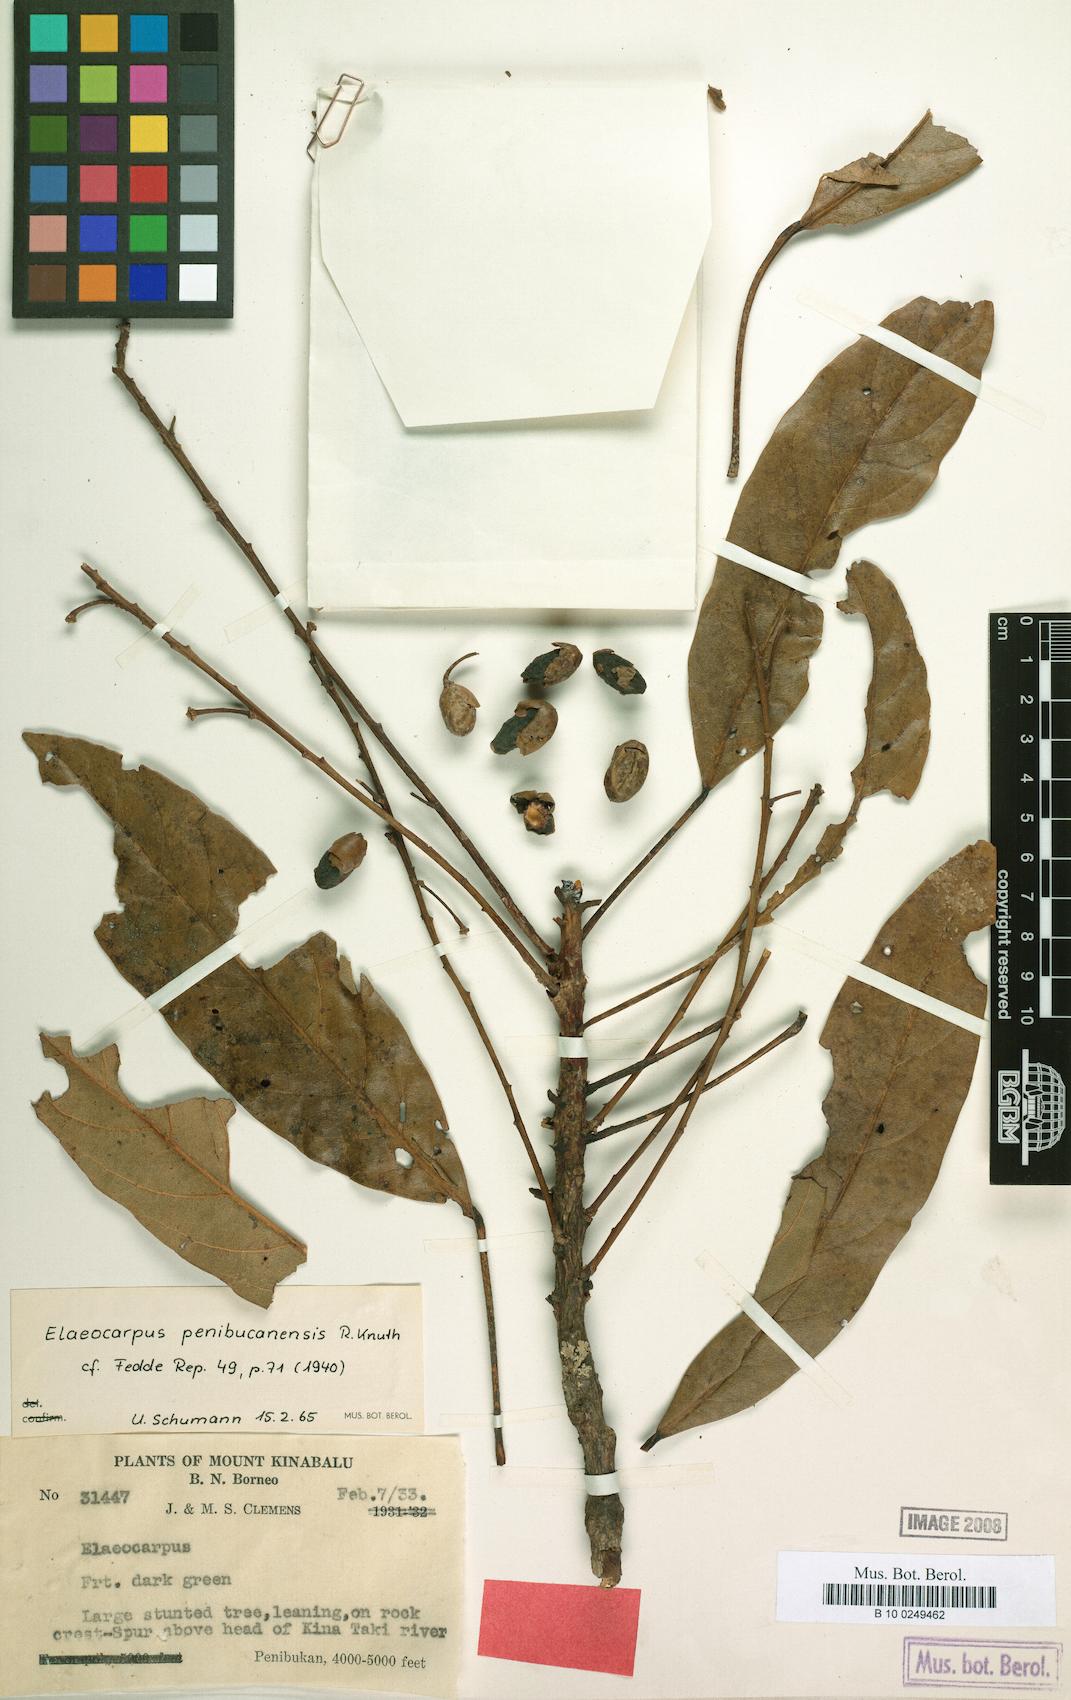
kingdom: Plantae
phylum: Tracheophyta
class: Magnoliopsida
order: Oxalidales
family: Elaeocarpaceae
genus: Elaeocarpus
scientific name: Elaeocarpus sadikanensis
